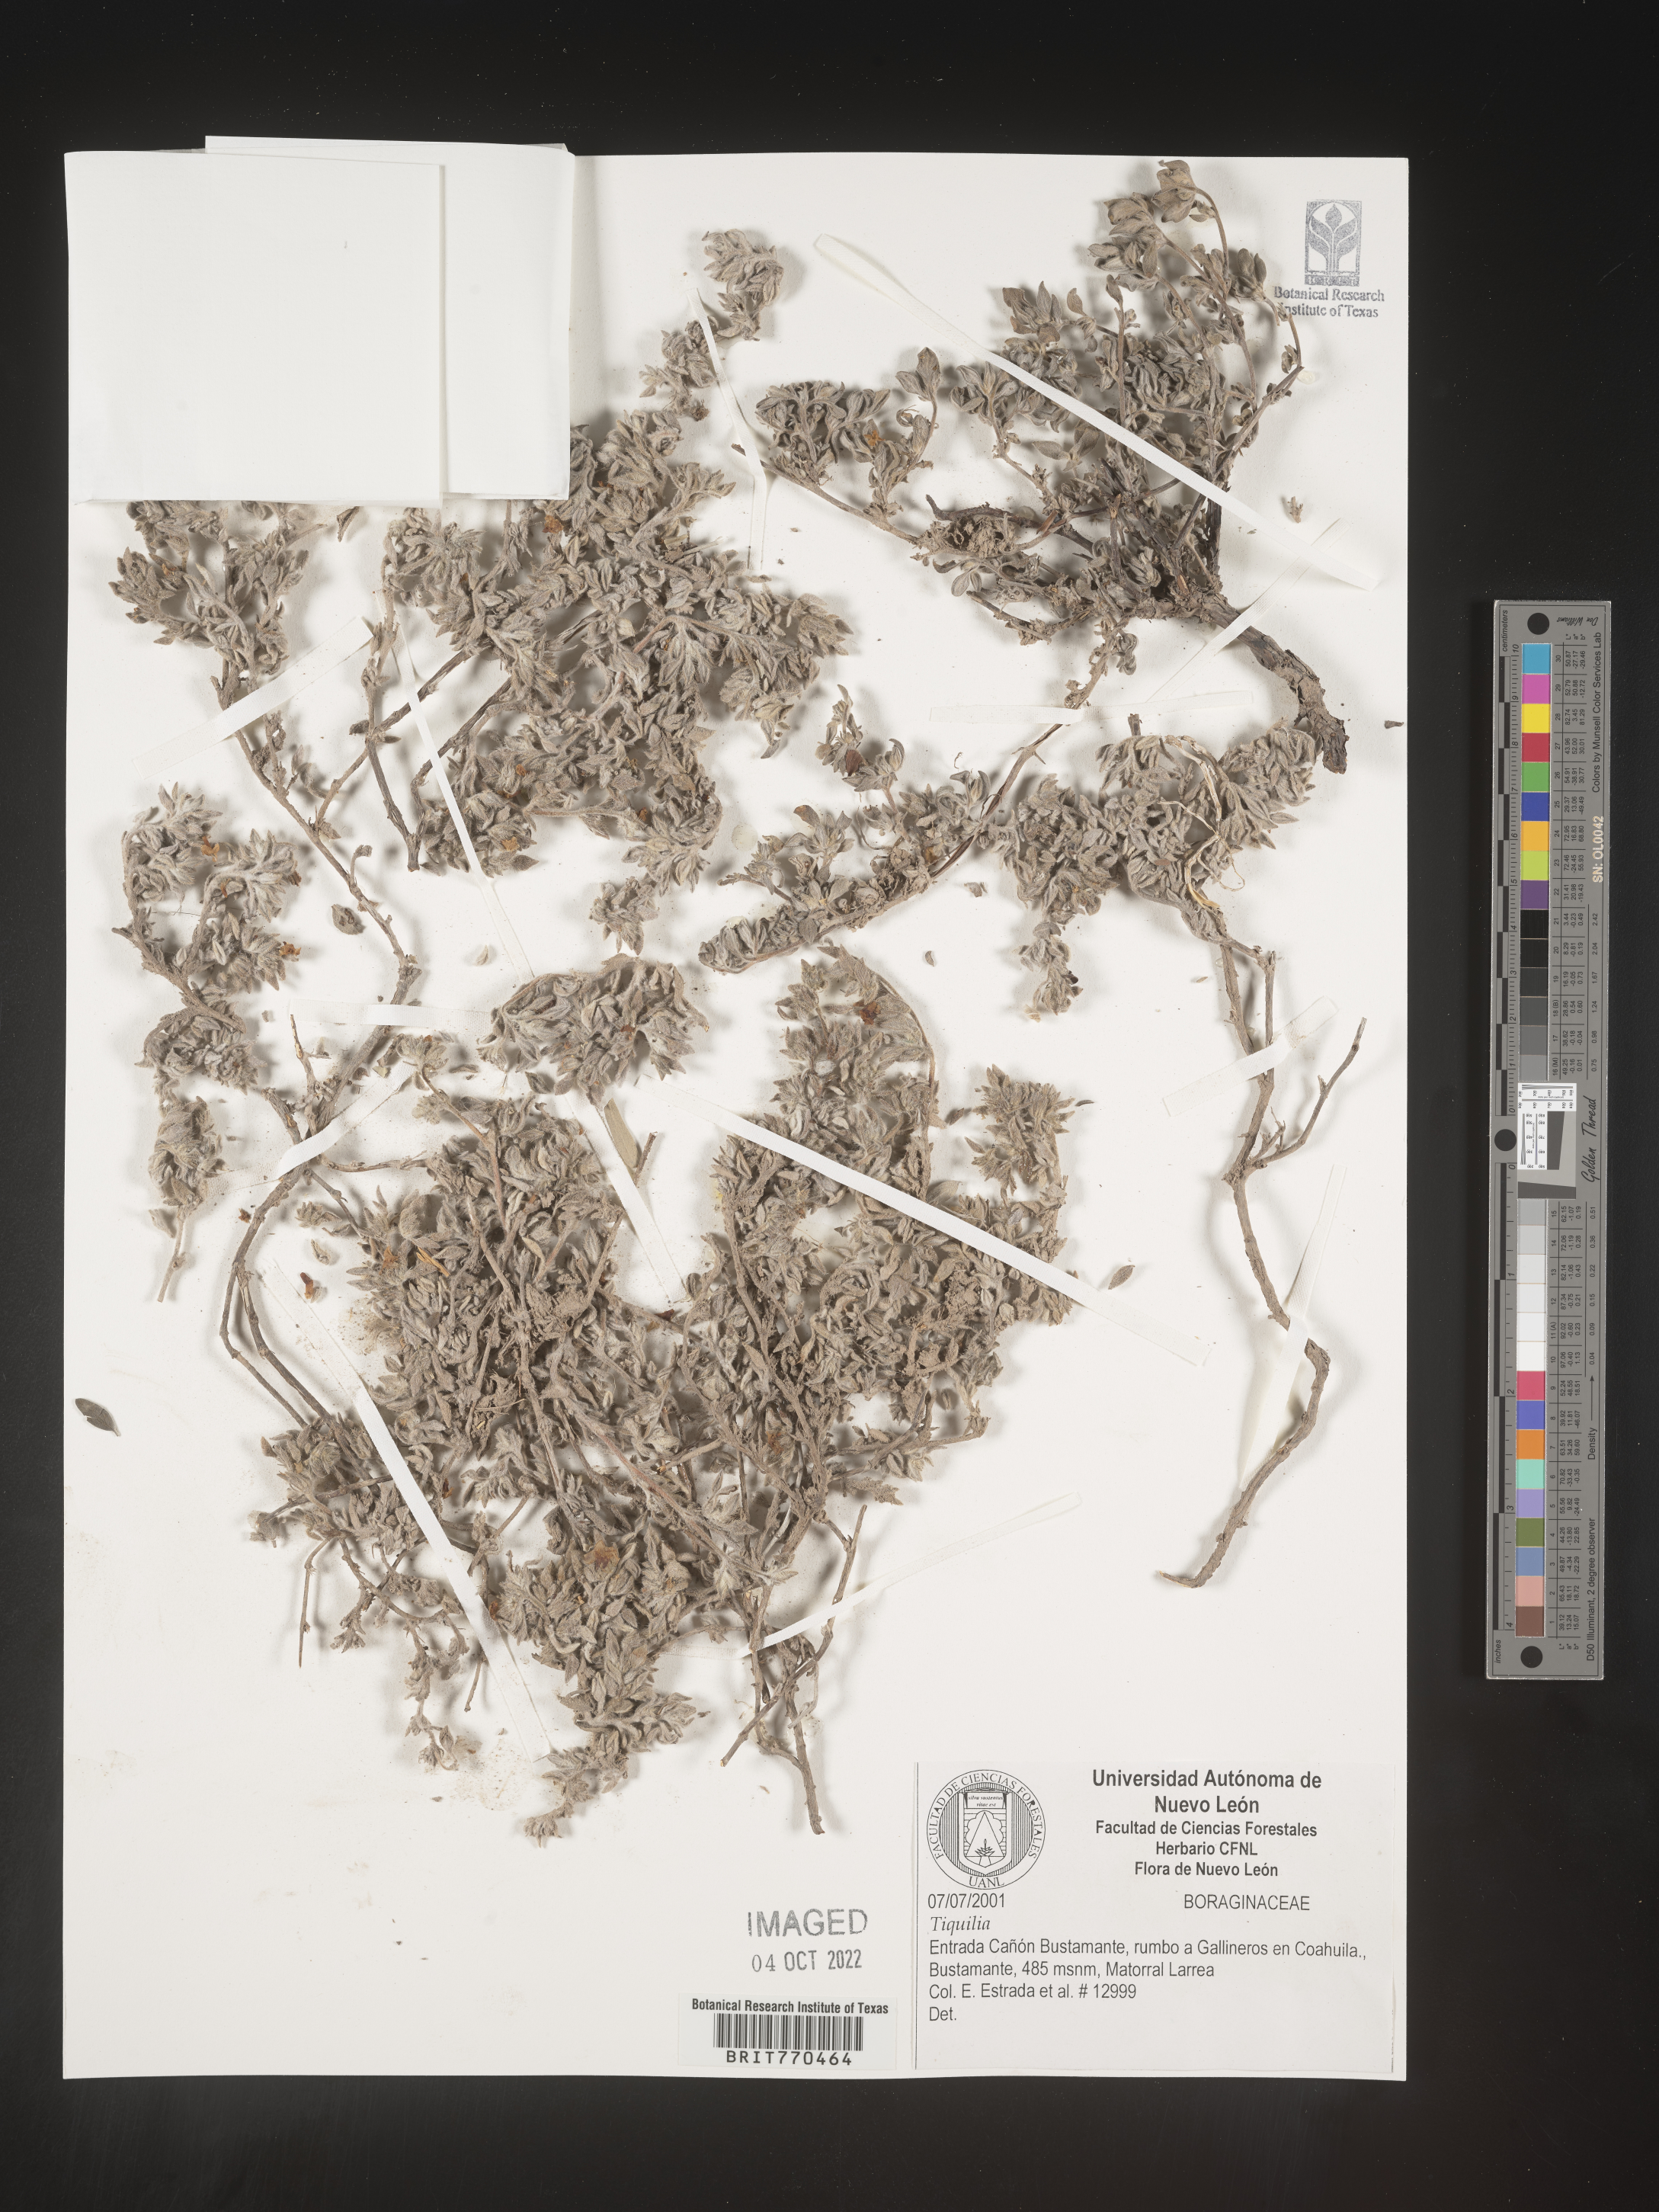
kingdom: Plantae
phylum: Tracheophyta
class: Magnoliopsida
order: Boraginales
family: Ehretiaceae
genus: Tiquilia
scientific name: Tiquilia
